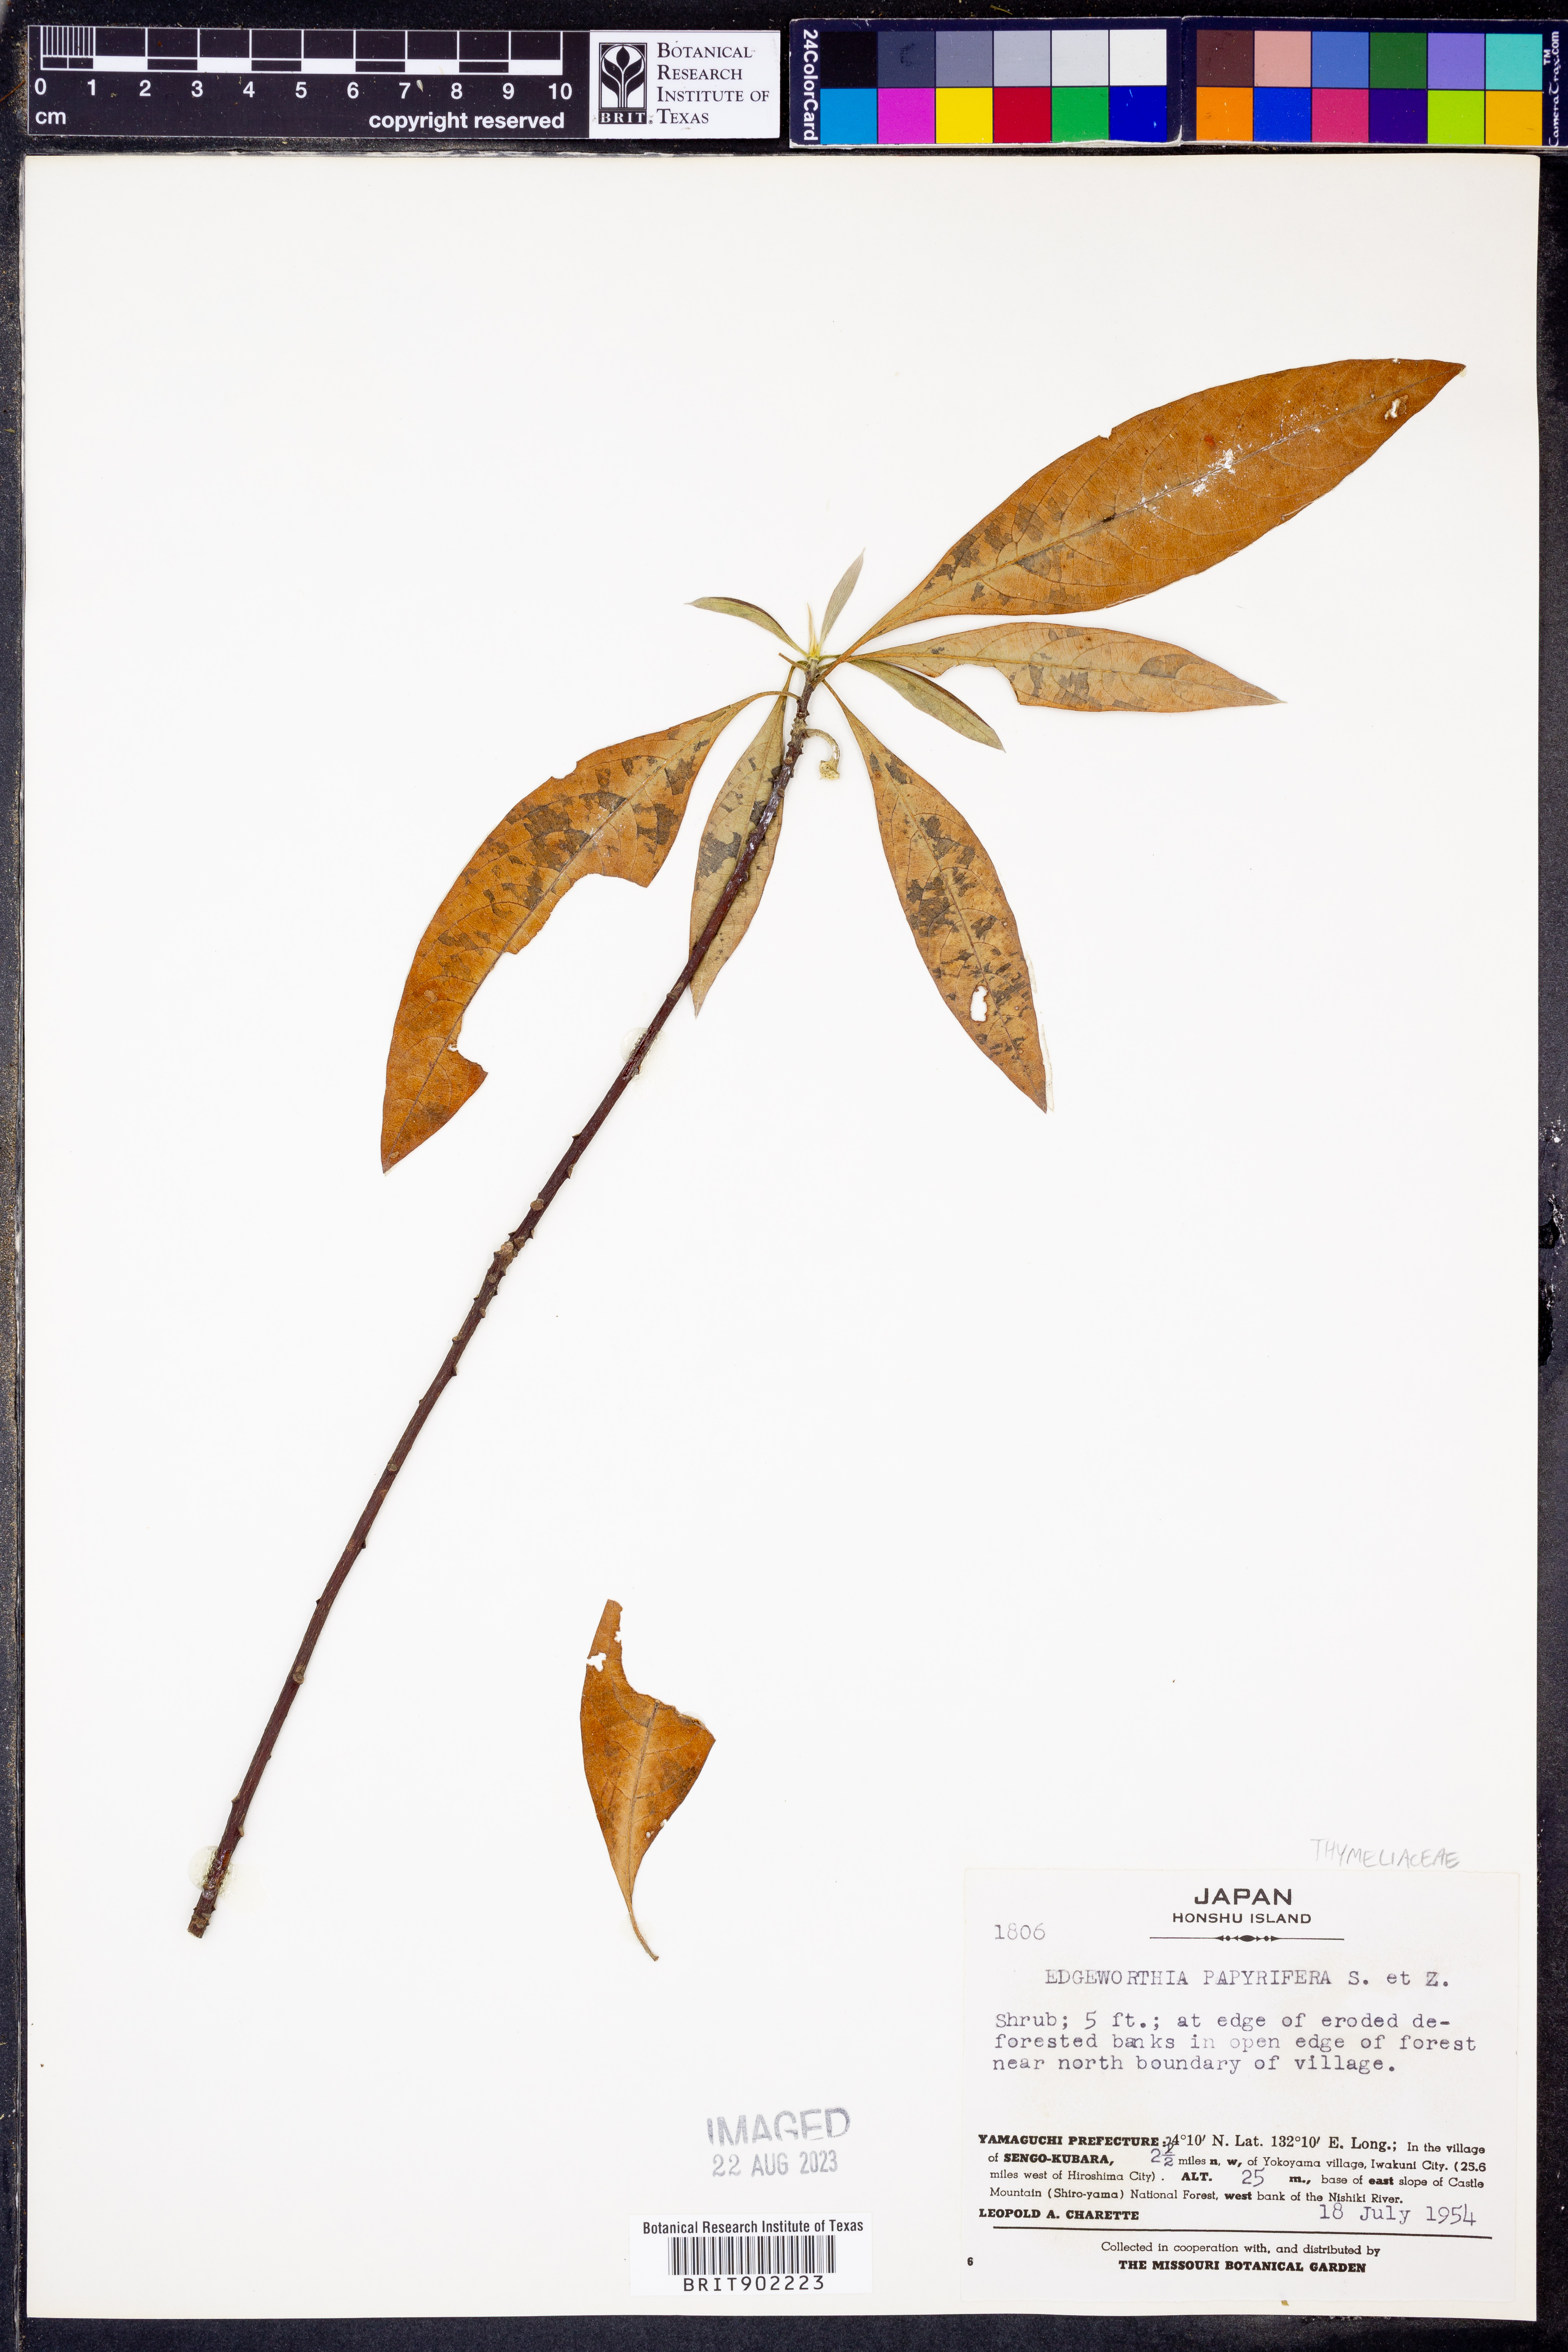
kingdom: Plantae
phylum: Tracheophyta
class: Magnoliopsida
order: Malvales
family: Thymelaeaceae
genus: Edgeworthia
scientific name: Edgeworthia chrysantha
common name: Oriental paperbush
